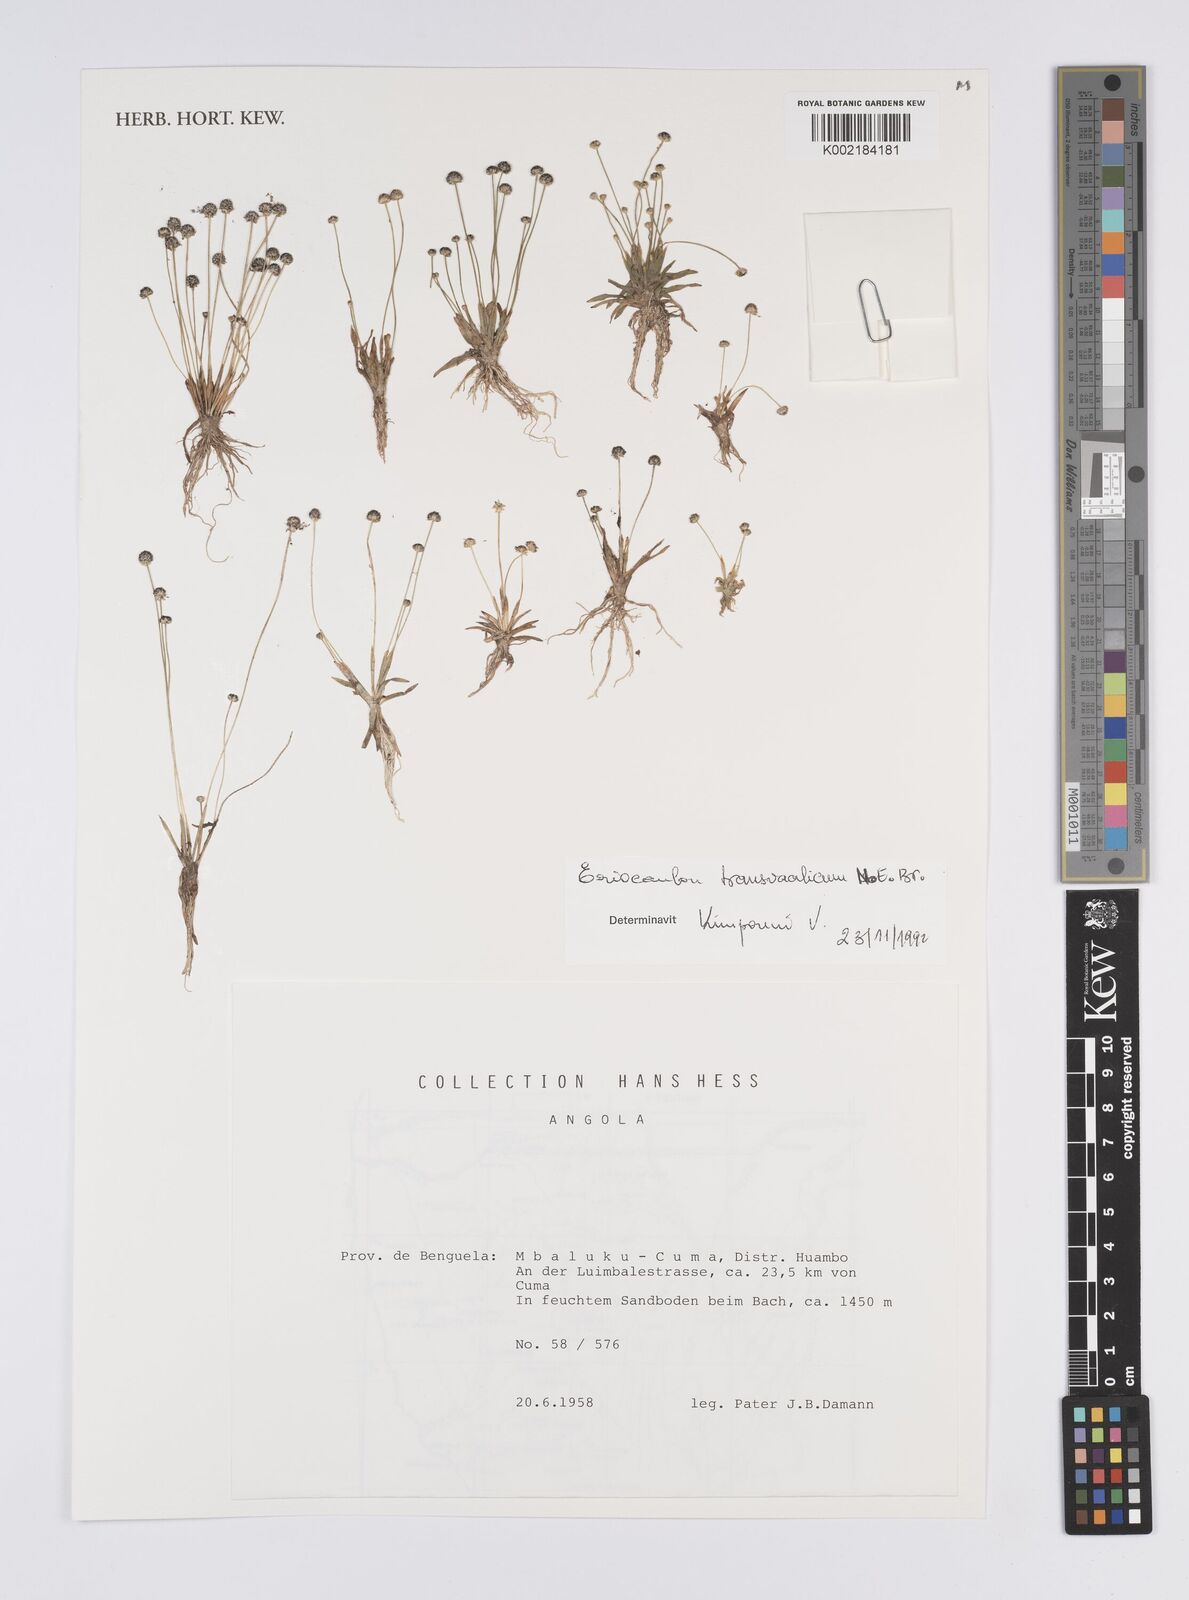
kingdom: Plantae
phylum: Tracheophyta
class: Liliopsida
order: Poales
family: Eriocaulaceae
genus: Eriocaulon
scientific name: Eriocaulon transvaalicum
